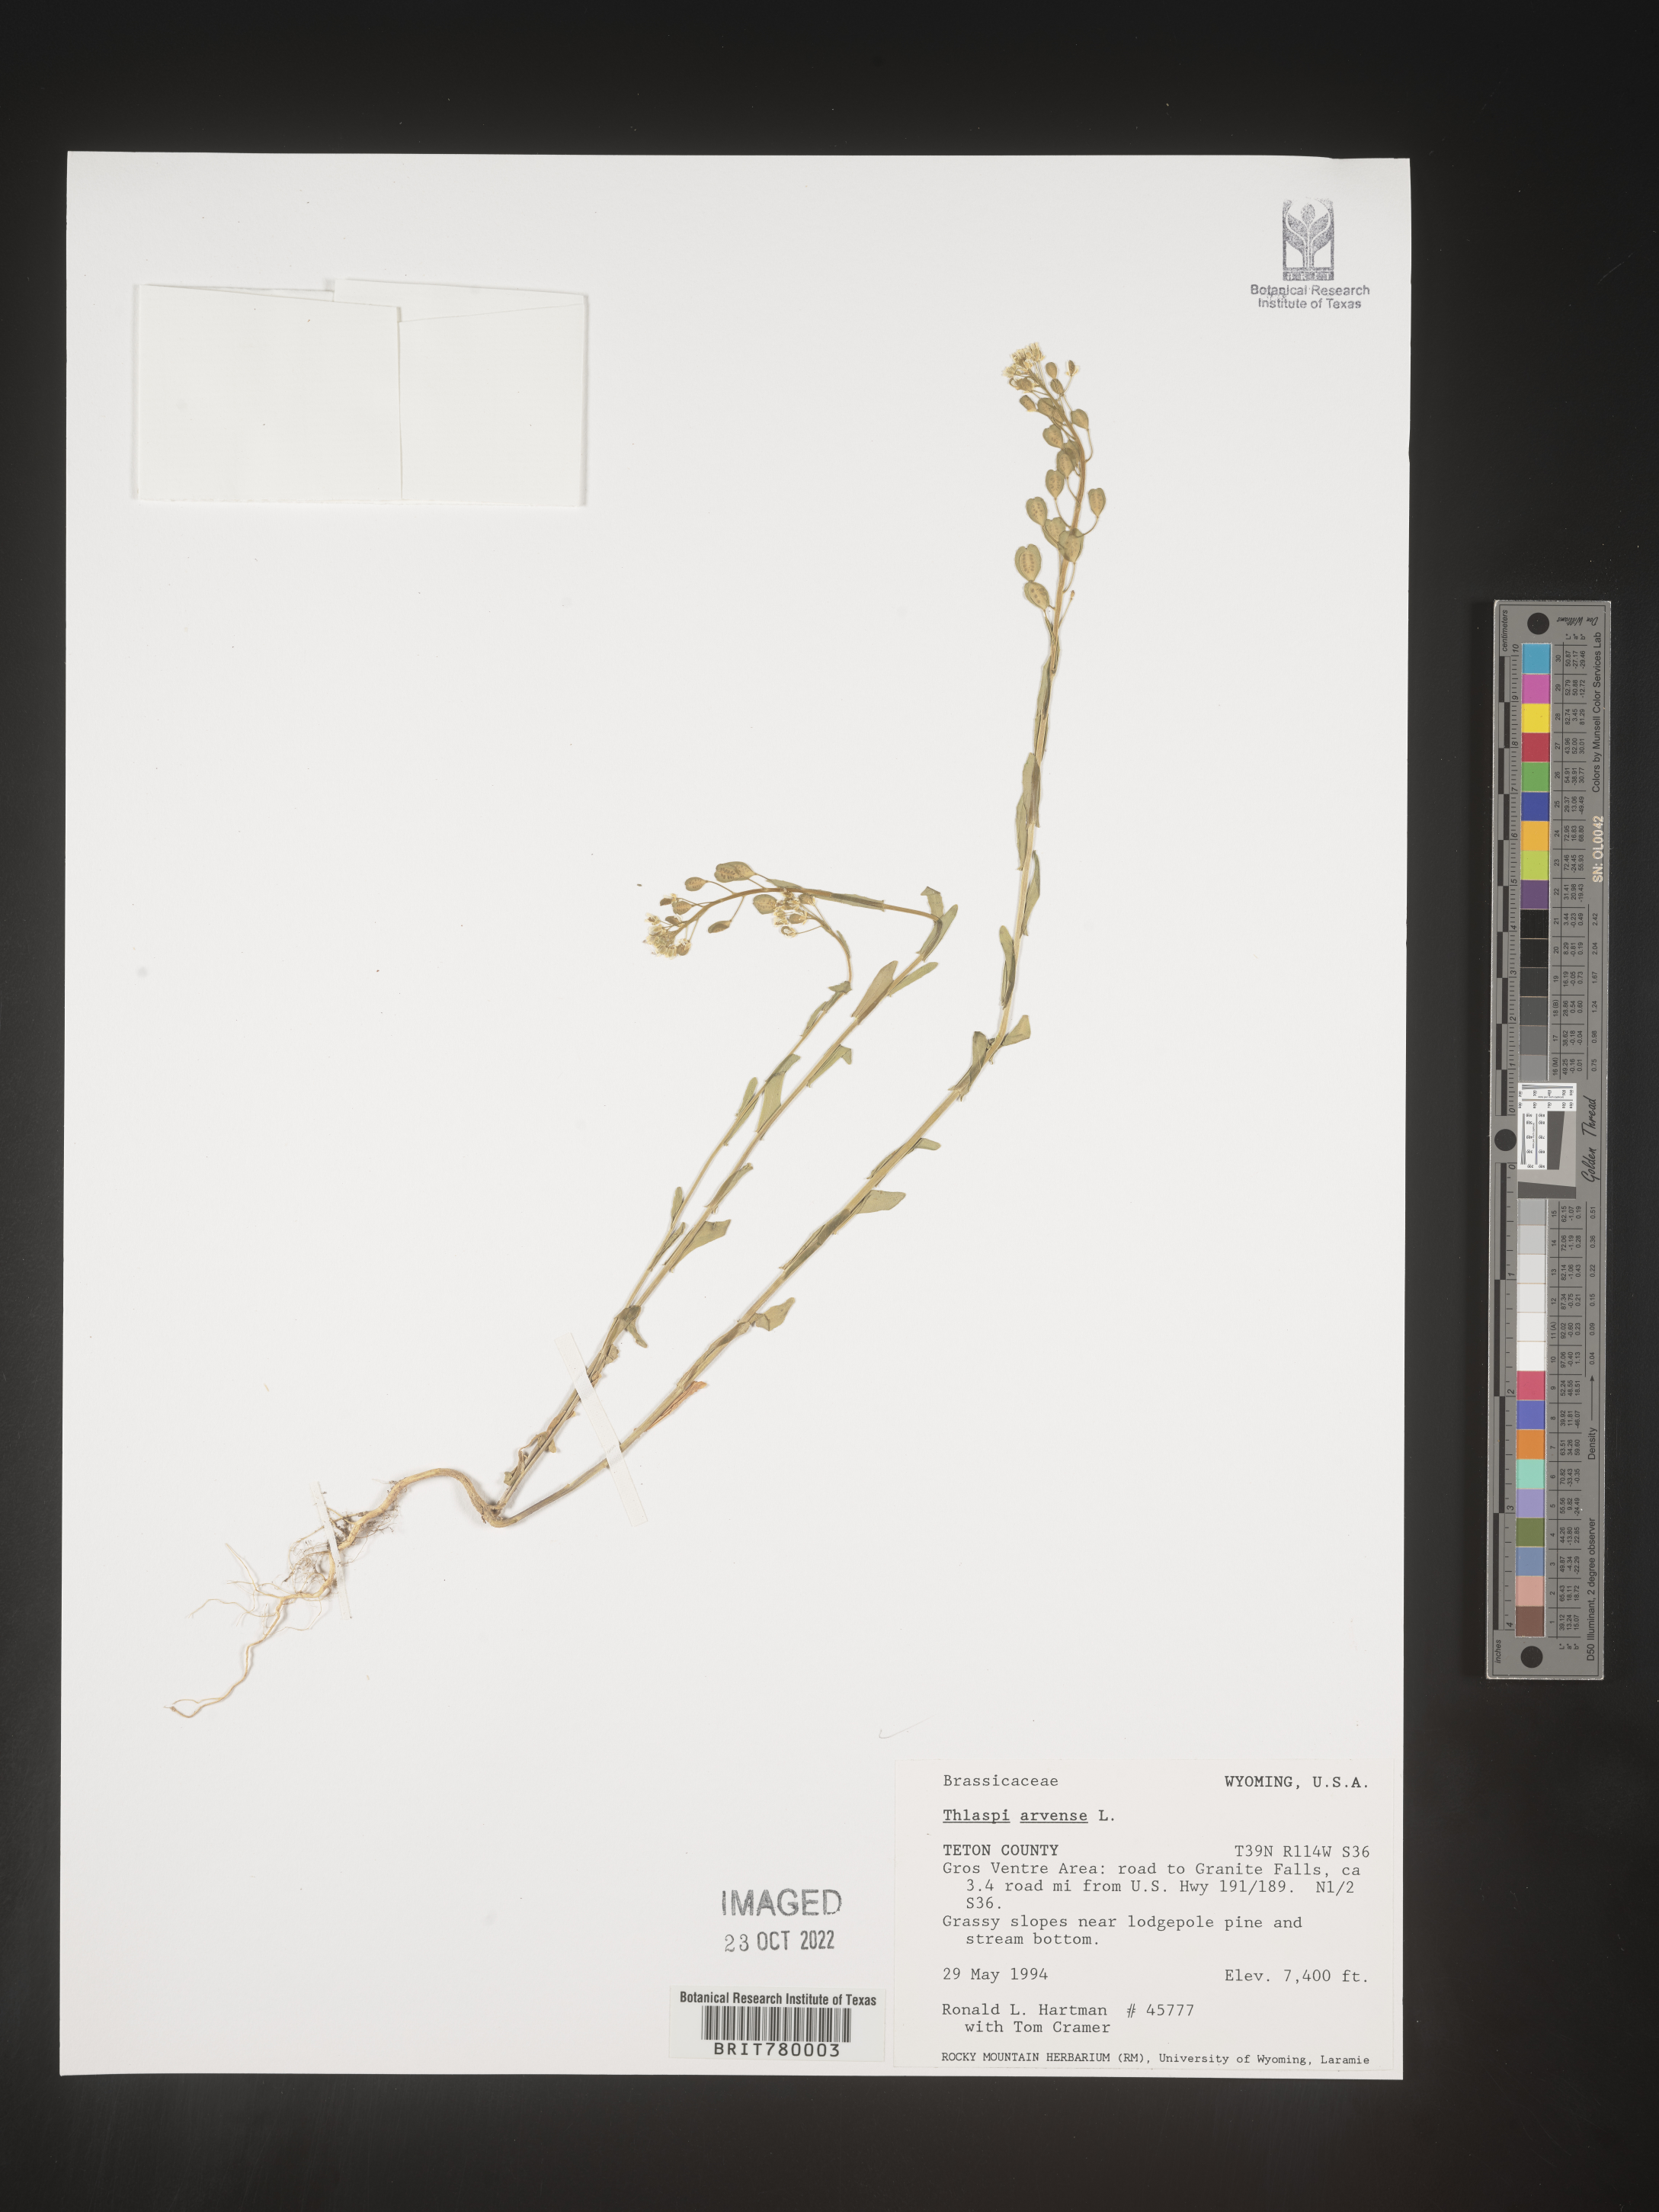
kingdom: Plantae
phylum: Tracheophyta
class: Magnoliopsida
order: Brassicales
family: Brassicaceae
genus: Thlaspi
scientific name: Thlaspi arvense
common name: Field pennycress
